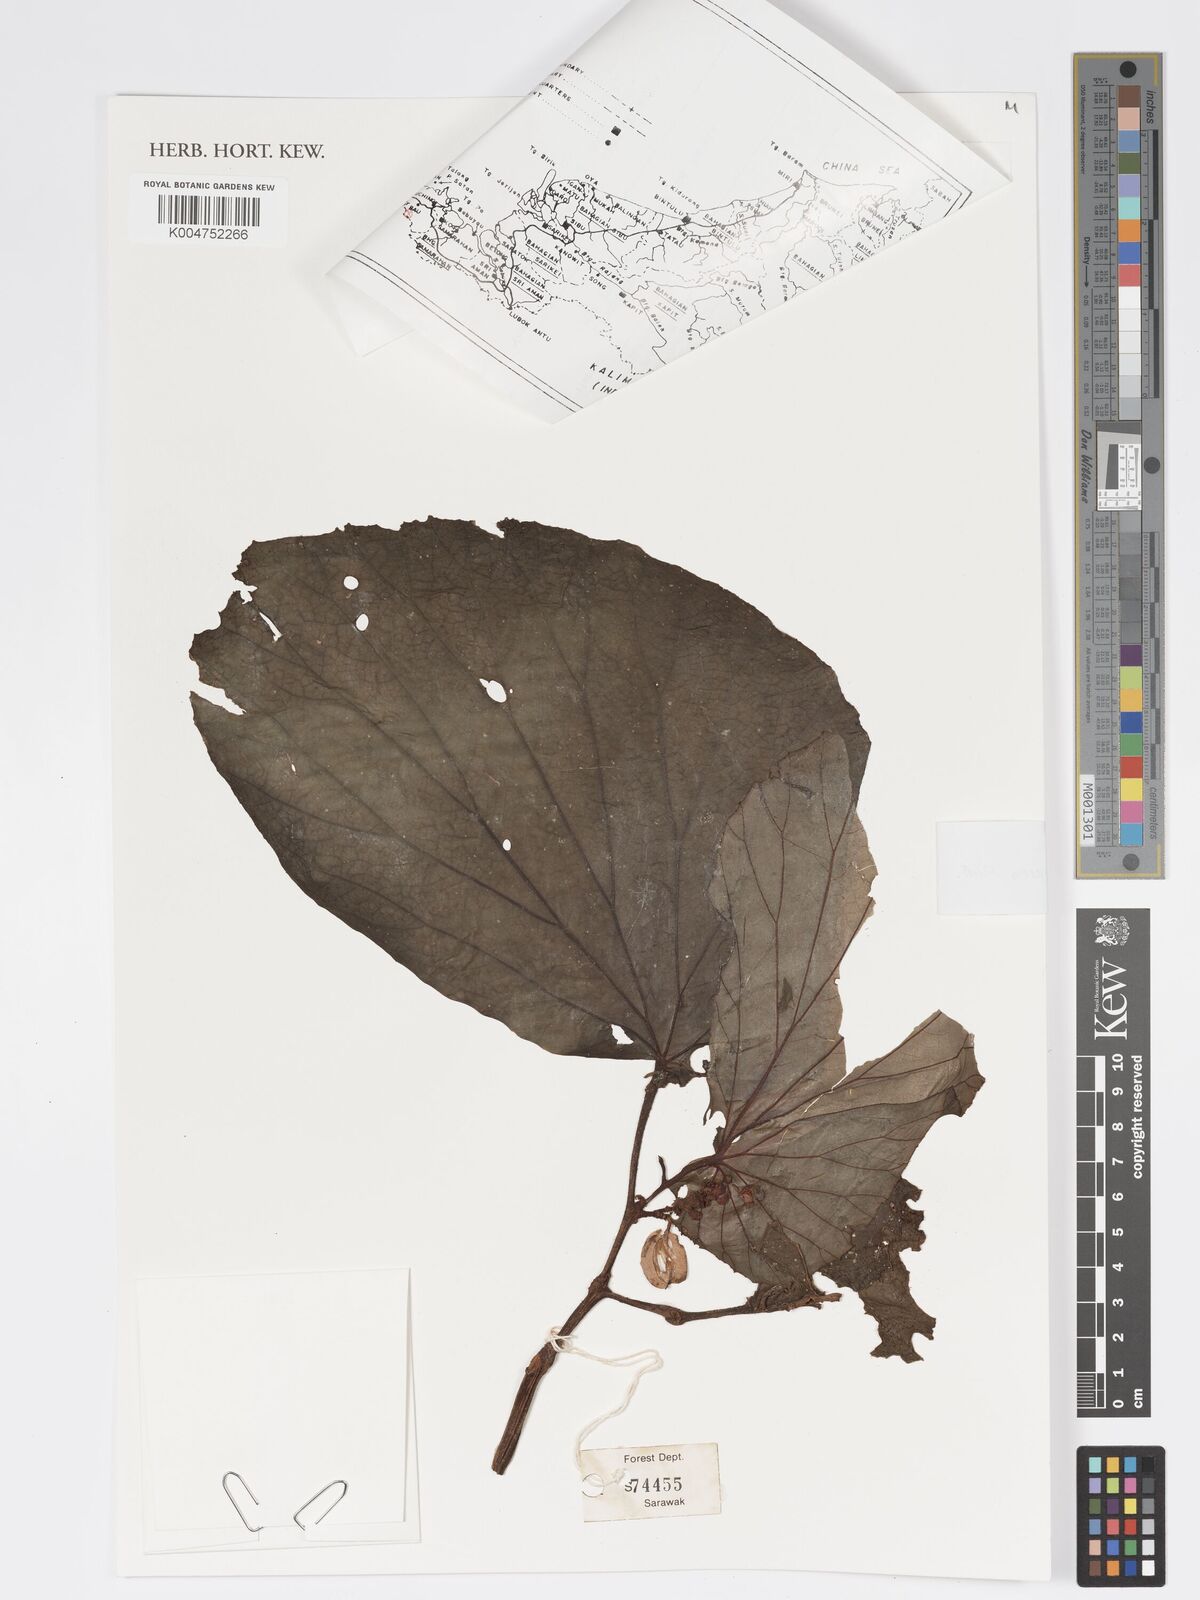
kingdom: Plantae
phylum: Tracheophyta
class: Magnoliopsida
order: Cucurbitales
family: Begoniaceae
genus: Begonia
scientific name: Begonia congesta
